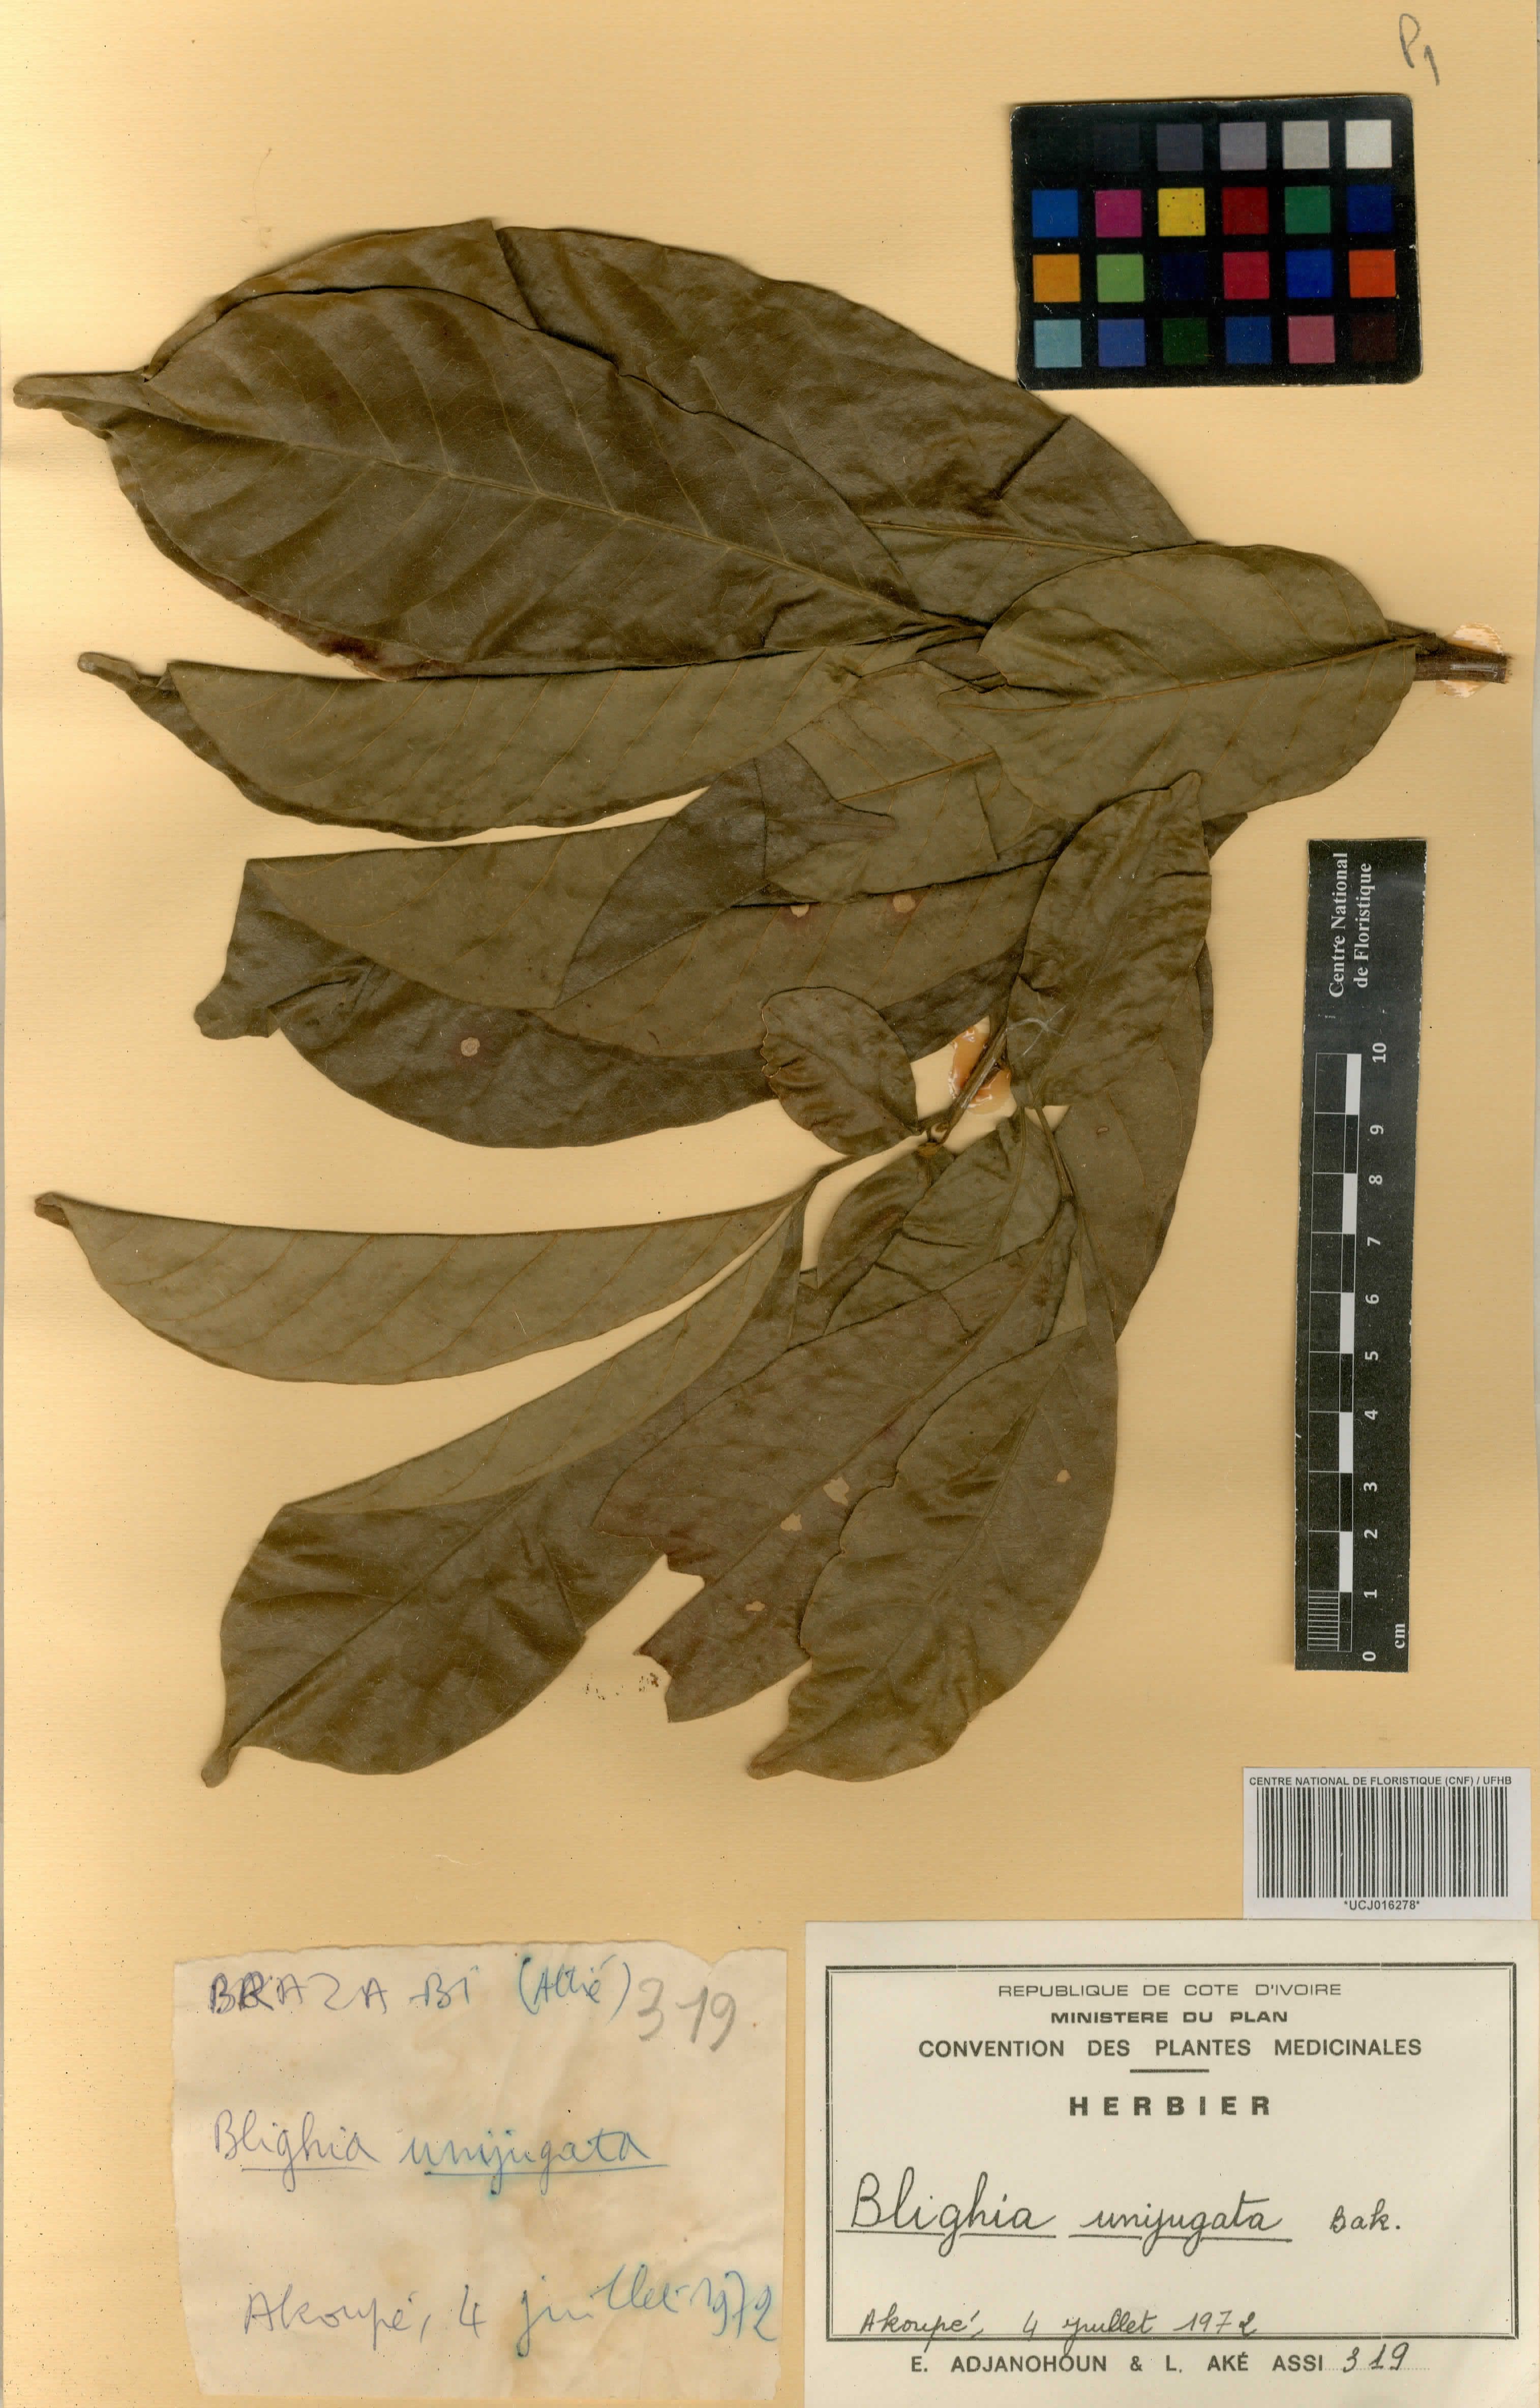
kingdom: Plantae
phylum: Tracheophyta
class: Magnoliopsida
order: Sapindales
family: Sapindaceae
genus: Blighia
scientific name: Blighia unijugata
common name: Triangle tops
